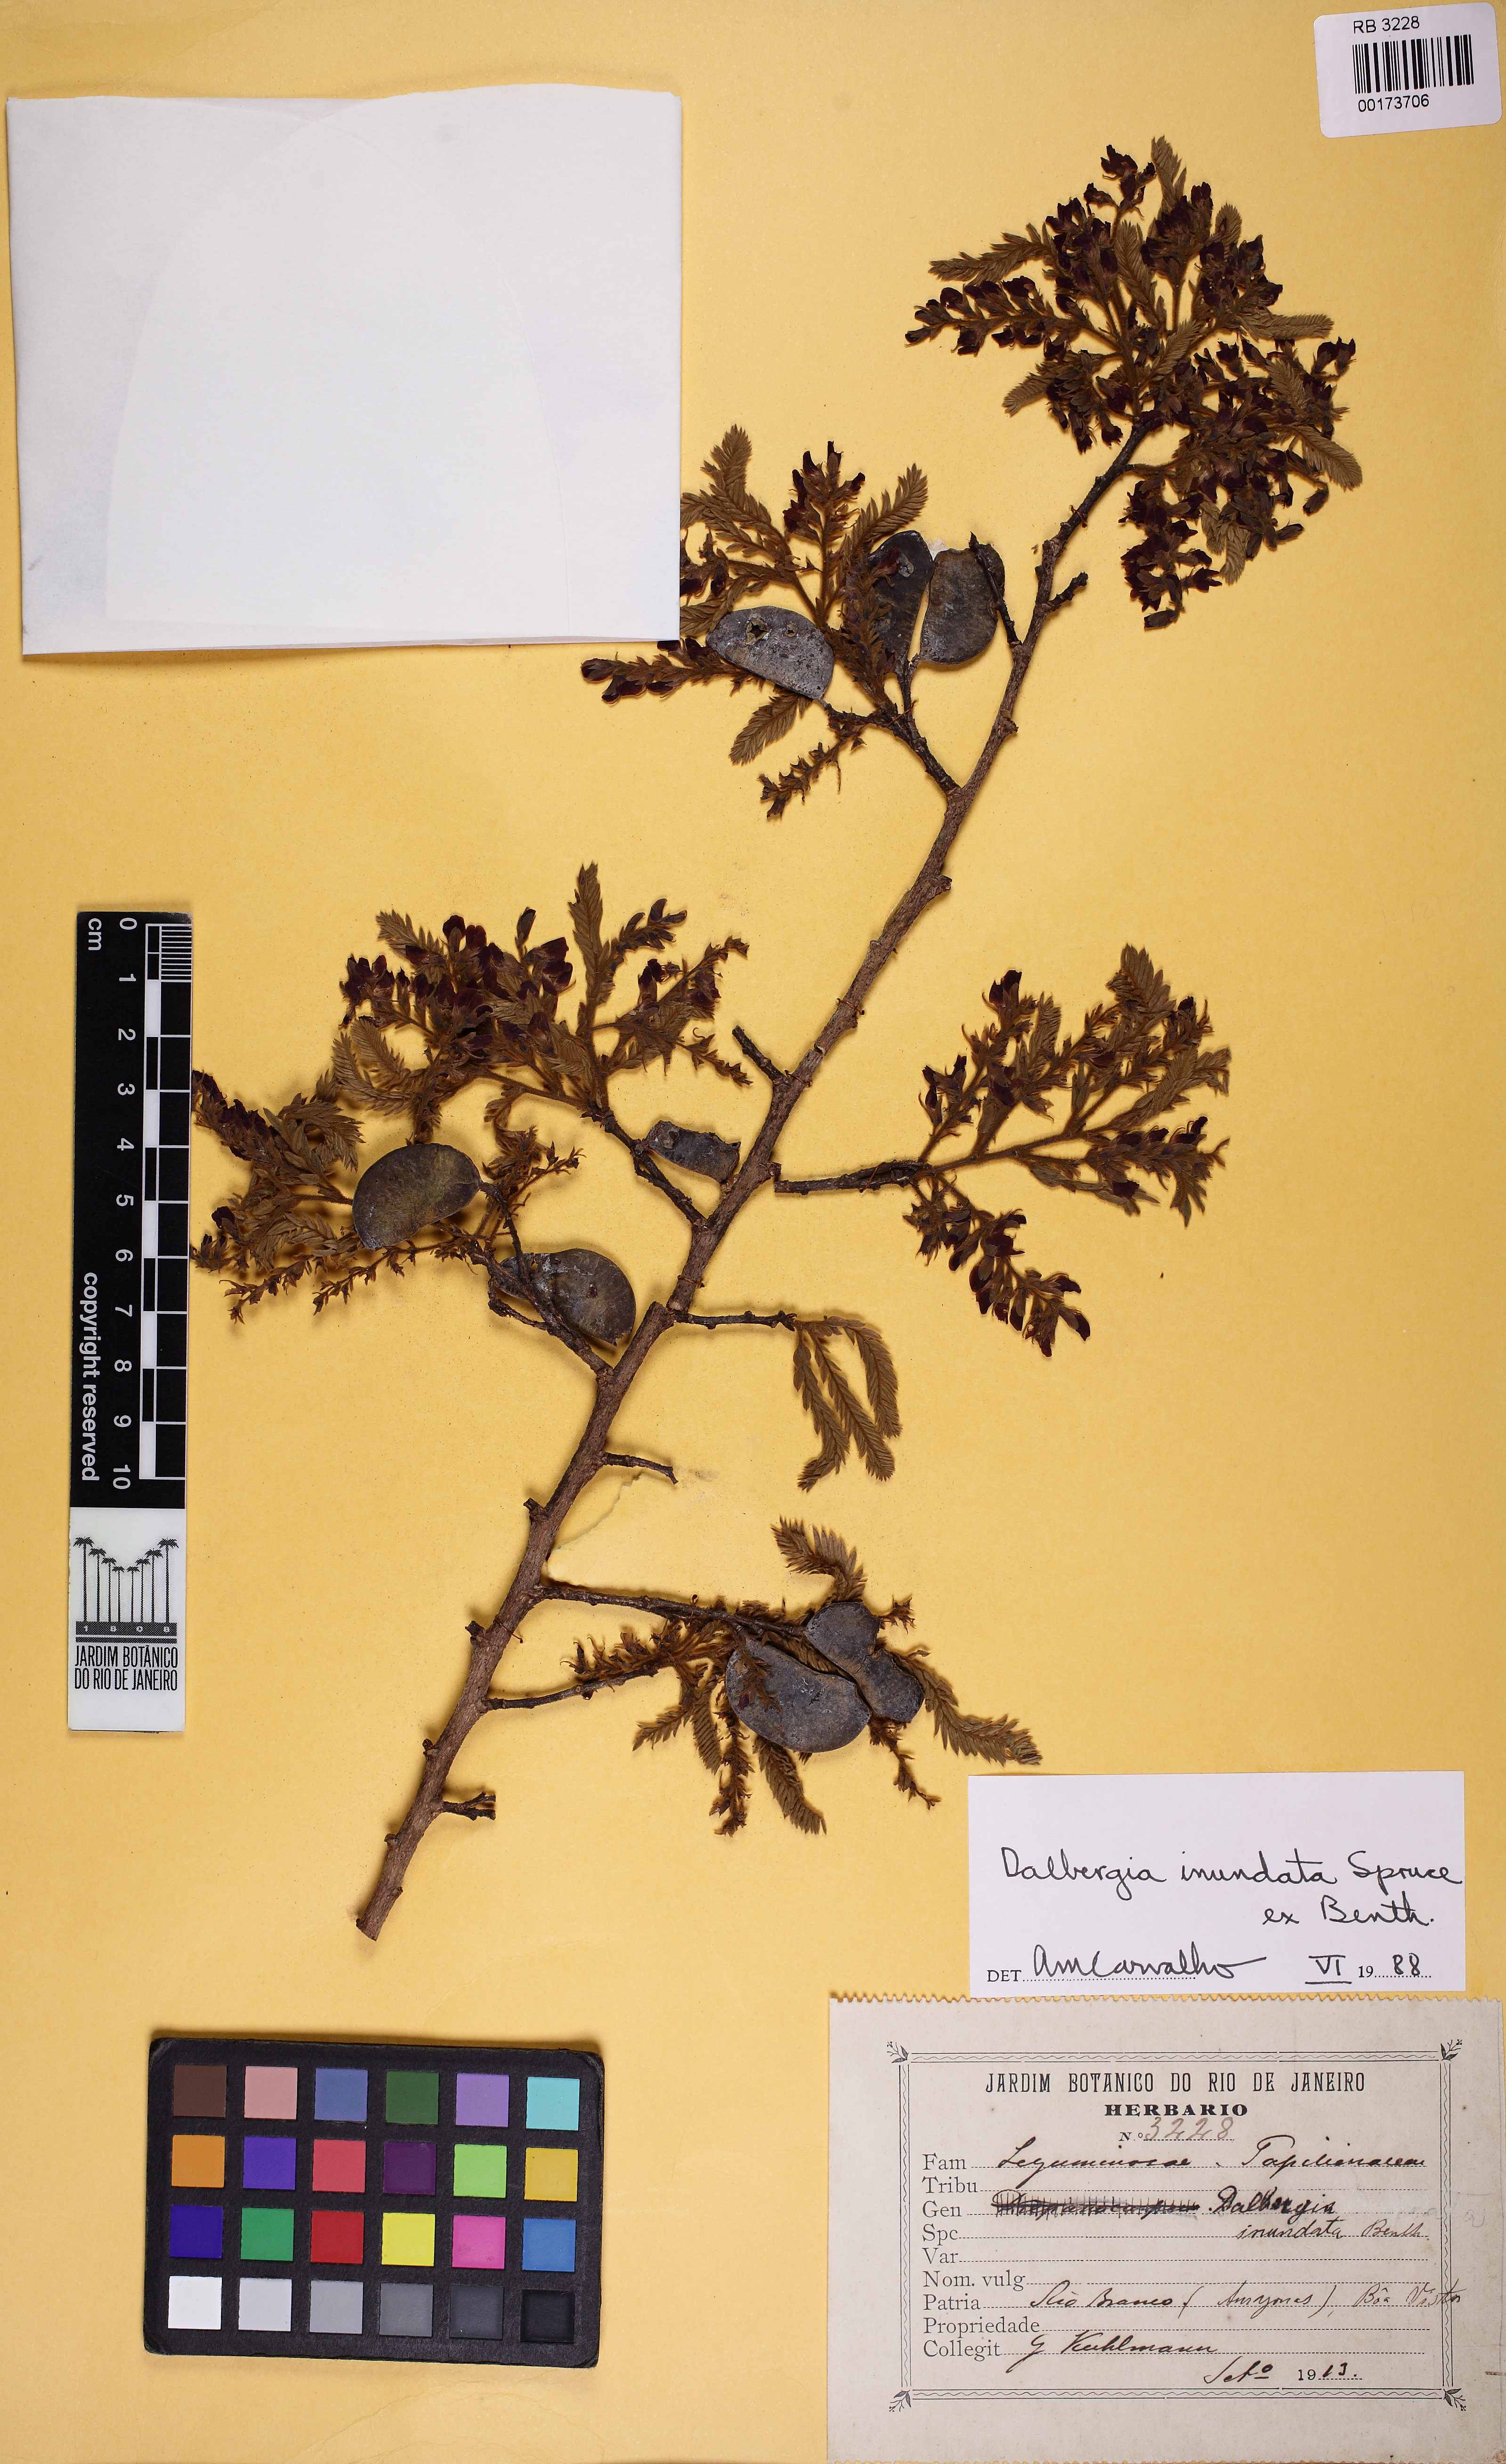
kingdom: Plantae
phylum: Tracheophyta
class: Magnoliopsida
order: Fabales
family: Fabaceae
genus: Dalbergia
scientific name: Dalbergia inundata
